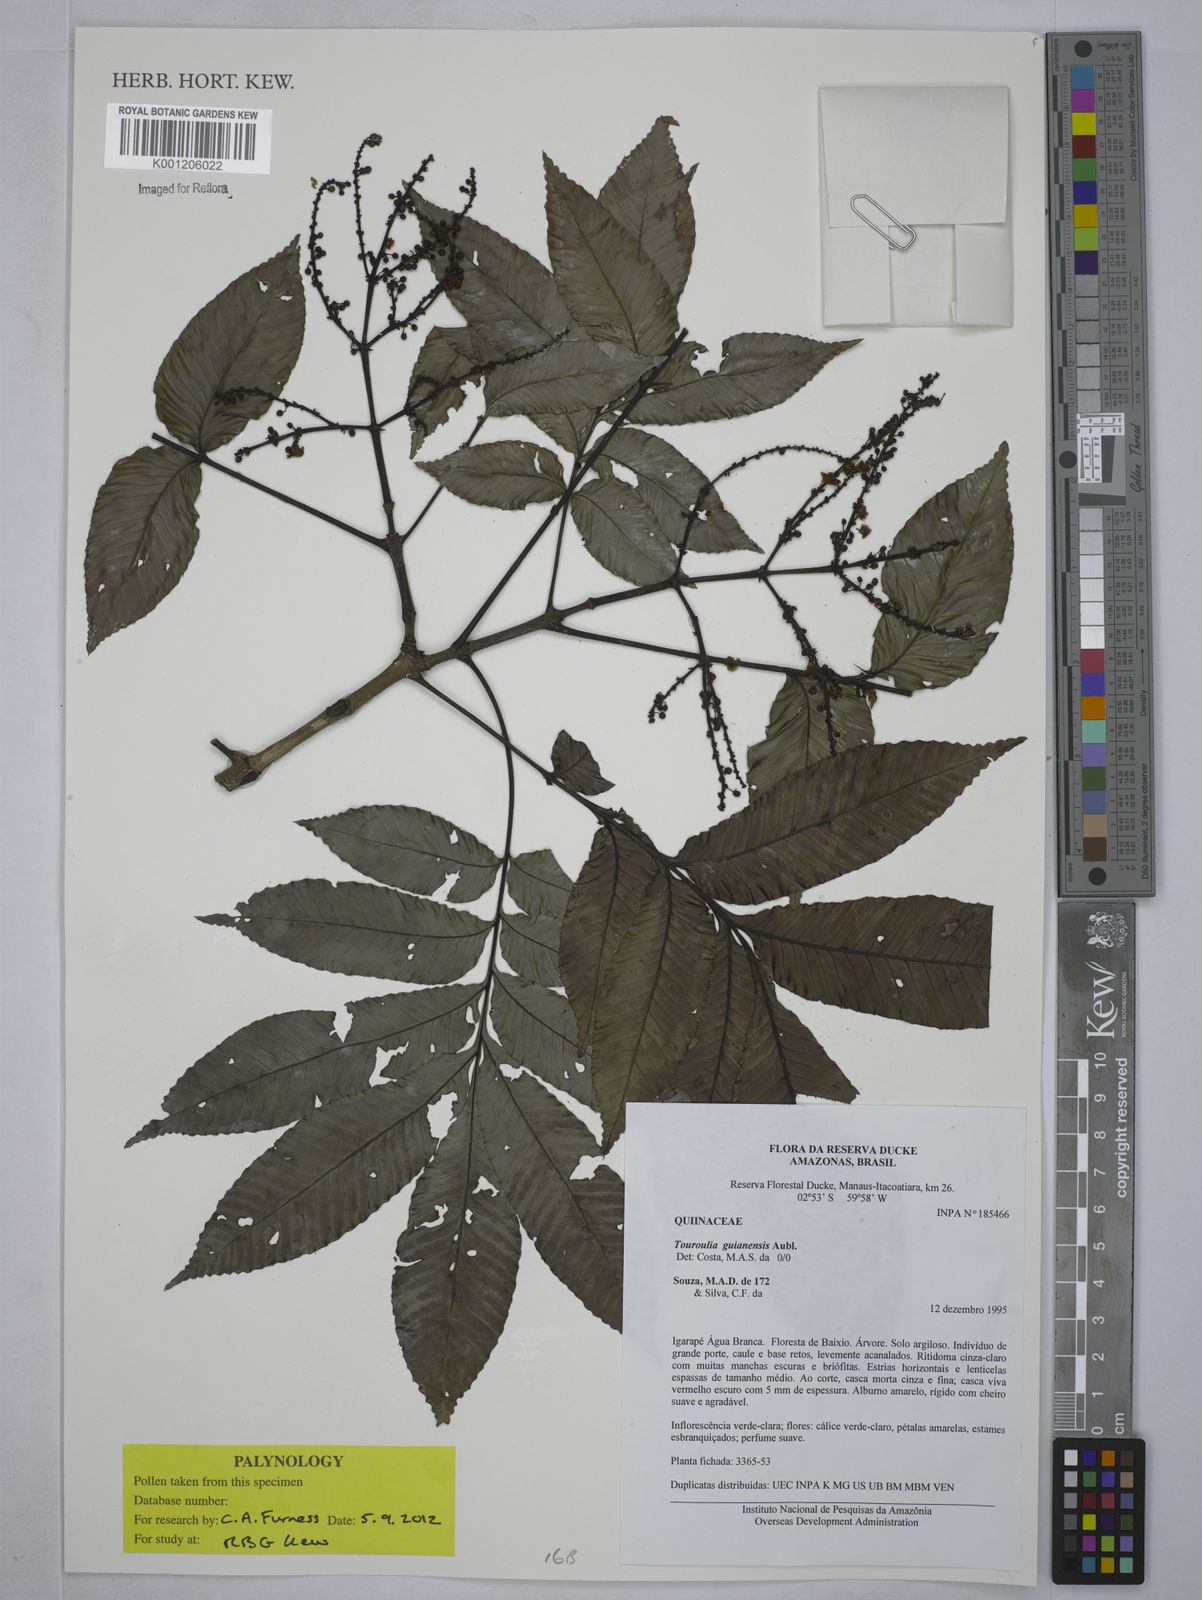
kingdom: Plantae
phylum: Tracheophyta
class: Magnoliopsida
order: Malpighiales
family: Quiinaceae
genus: Touroulia
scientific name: Touroulia guianensis
